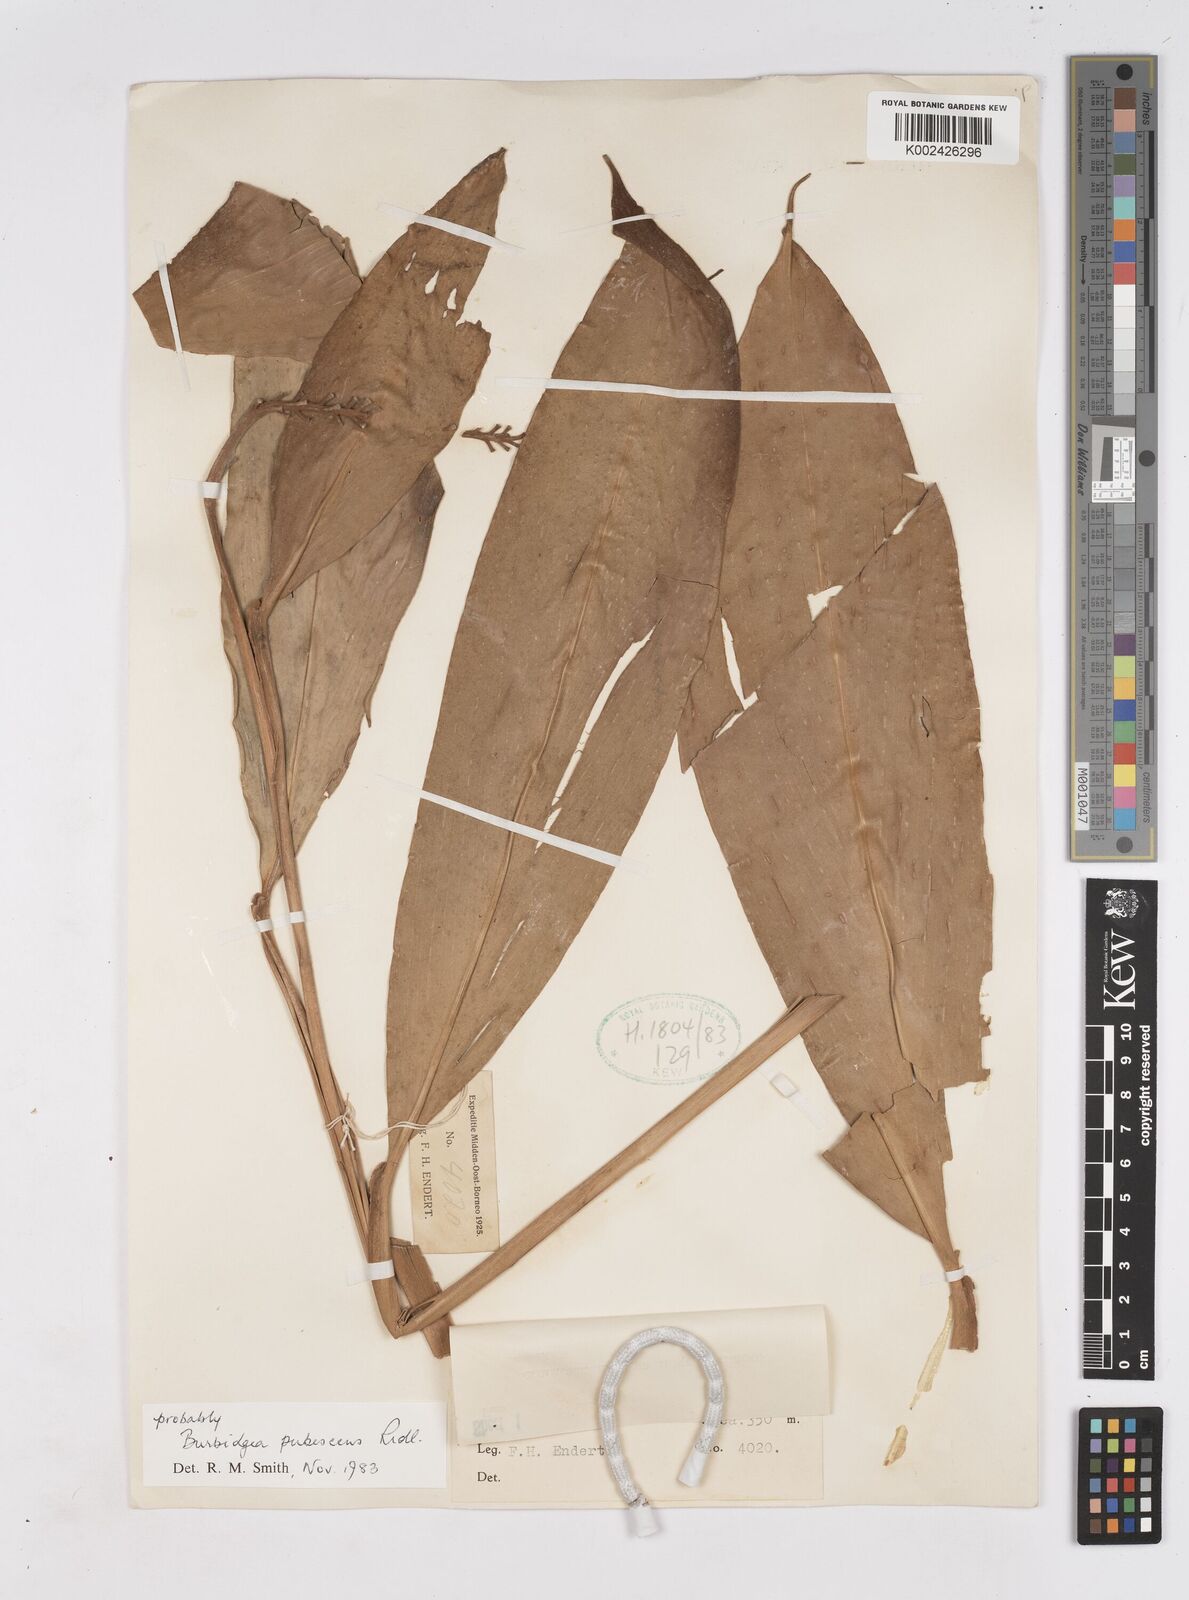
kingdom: Plantae
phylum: Tracheophyta
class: Liliopsida
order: Zingiberales
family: Zingiberaceae
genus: Burbidgea
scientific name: Burbidgea schizocheila
